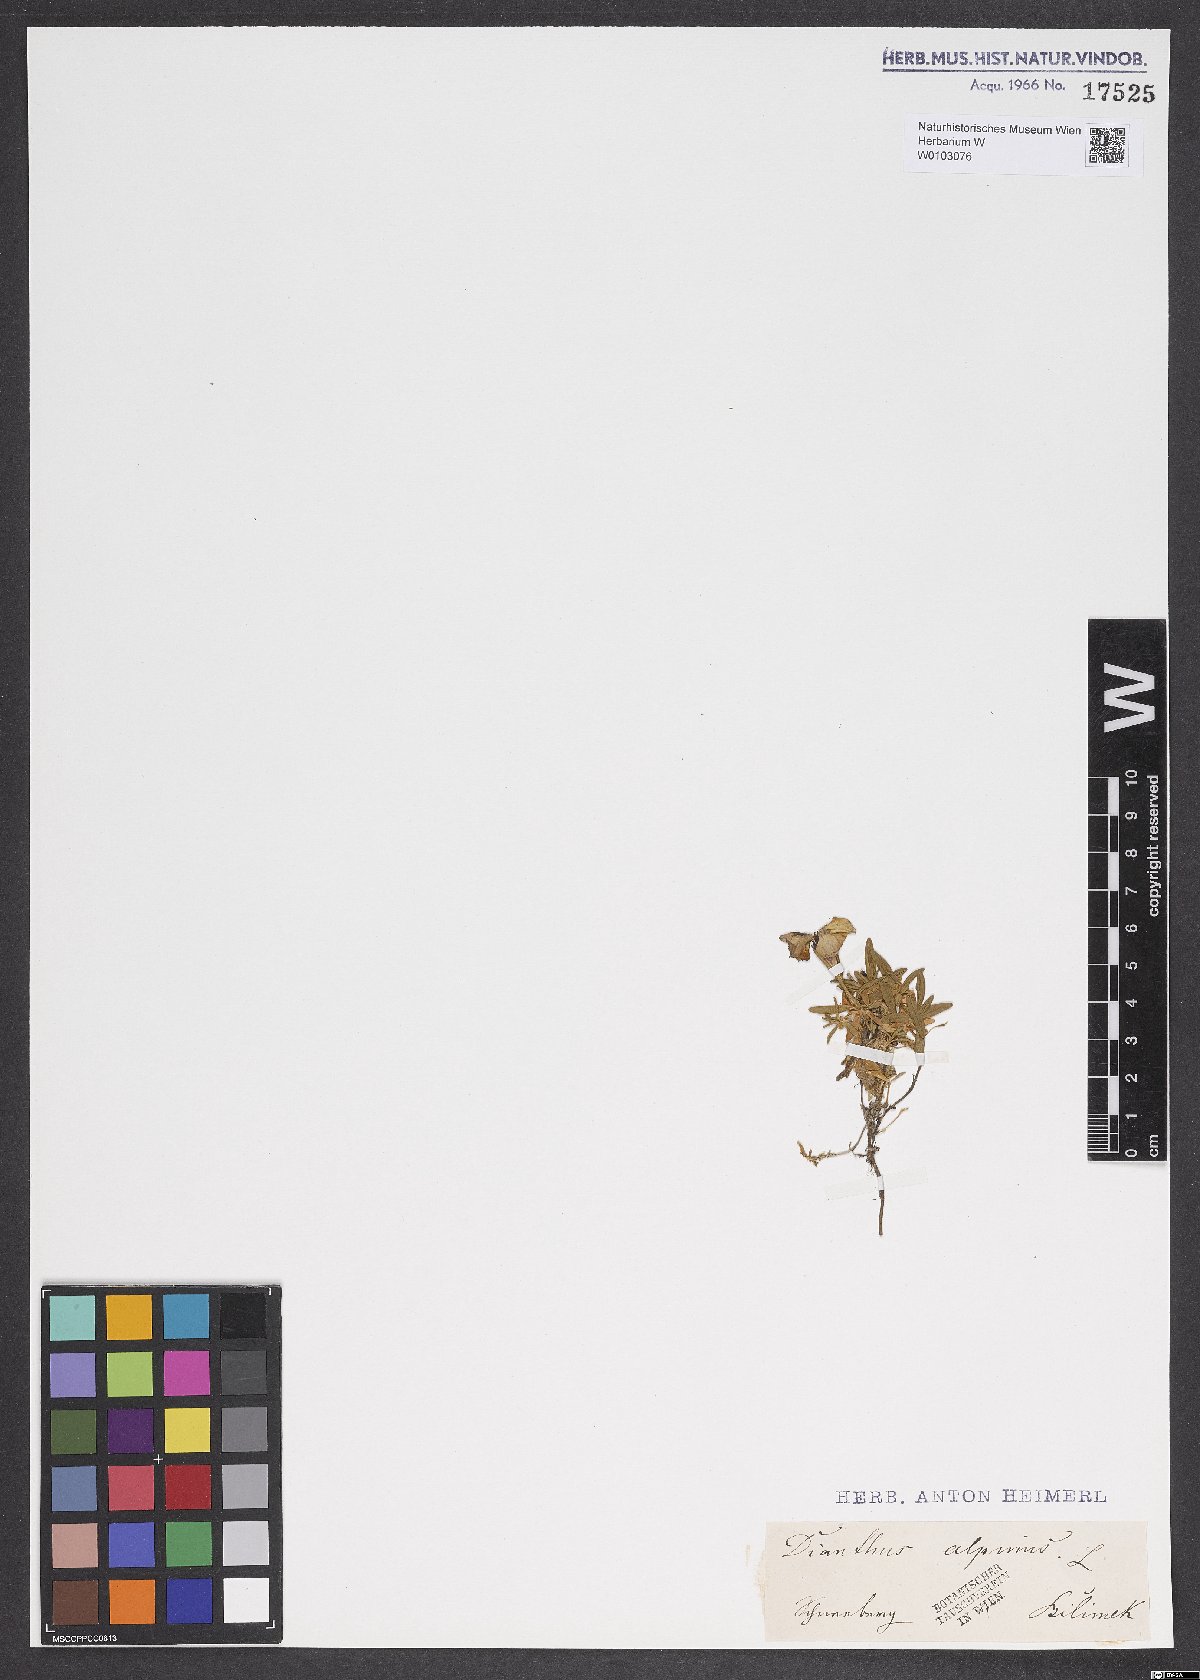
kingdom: Plantae
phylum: Tracheophyta
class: Magnoliopsida
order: Caryophyllales
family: Caryophyllaceae
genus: Dianthus
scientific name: Dianthus alpinus
